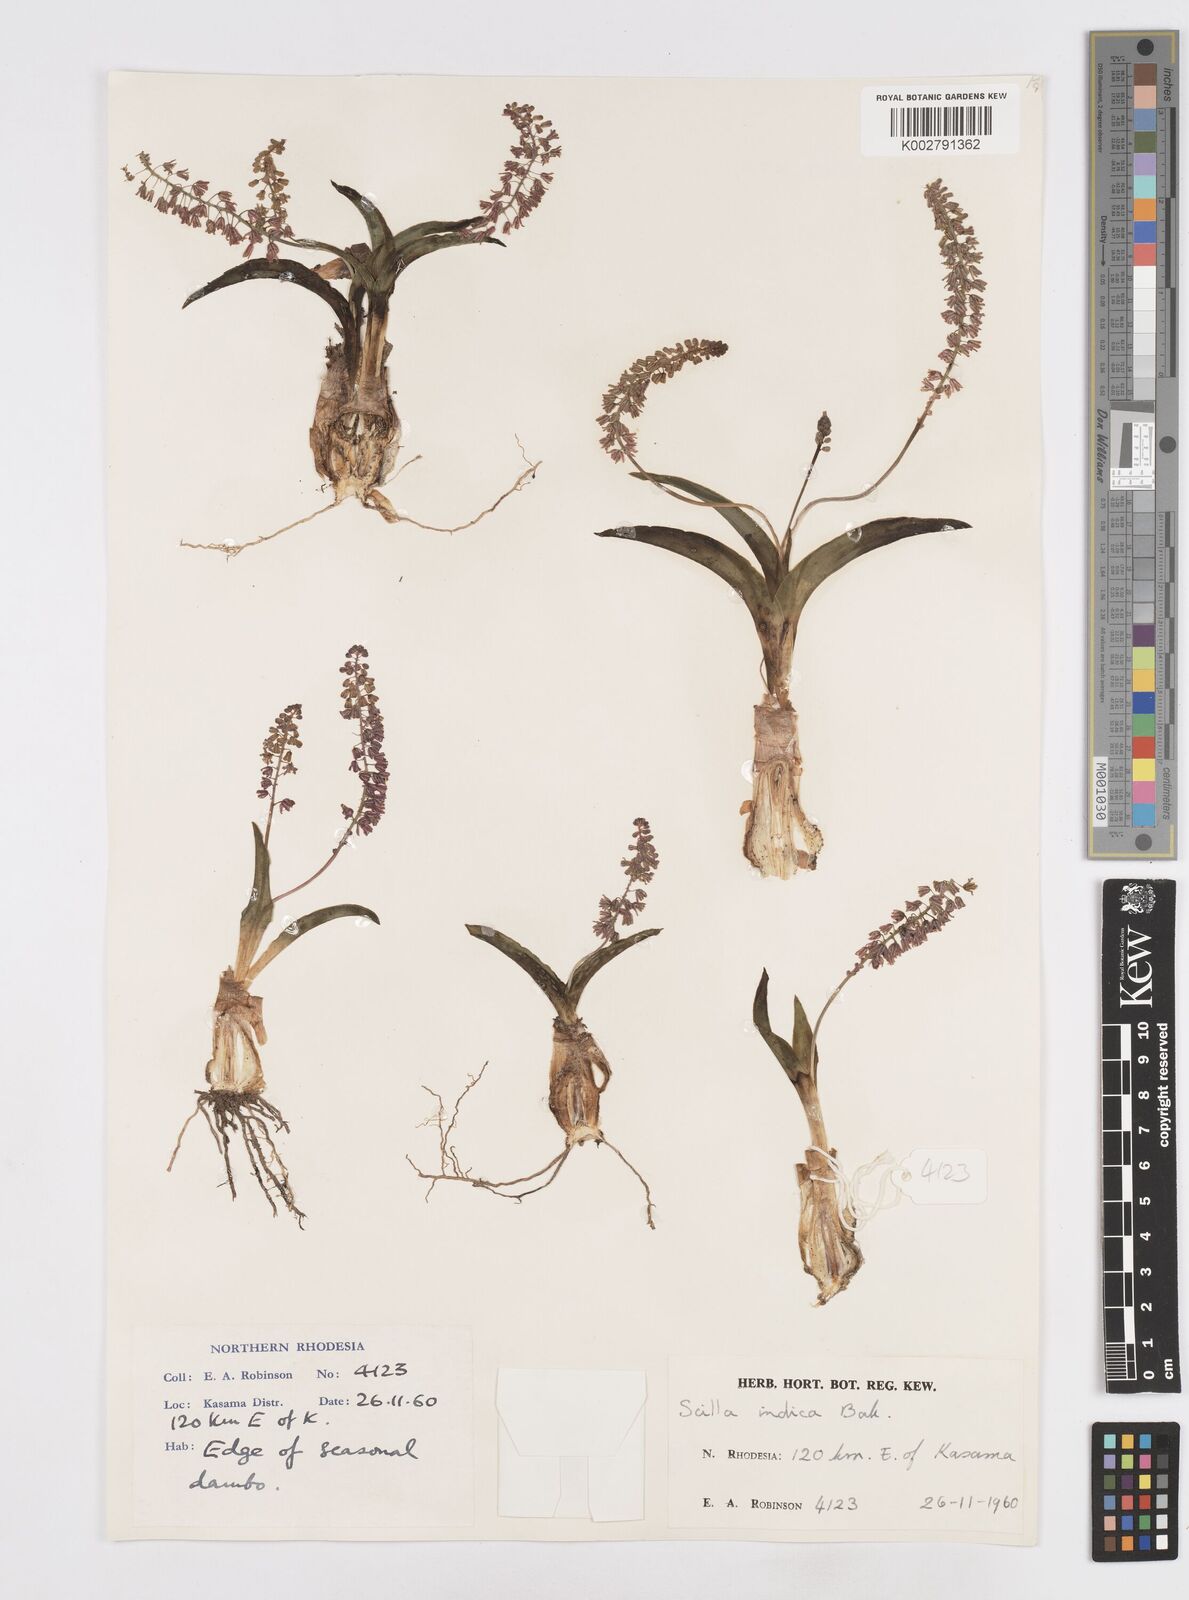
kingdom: Plantae
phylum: Tracheophyta
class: Liliopsida
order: Asparagales
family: Asparagaceae
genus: Ledebouria
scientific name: Ledebouria revoluta
